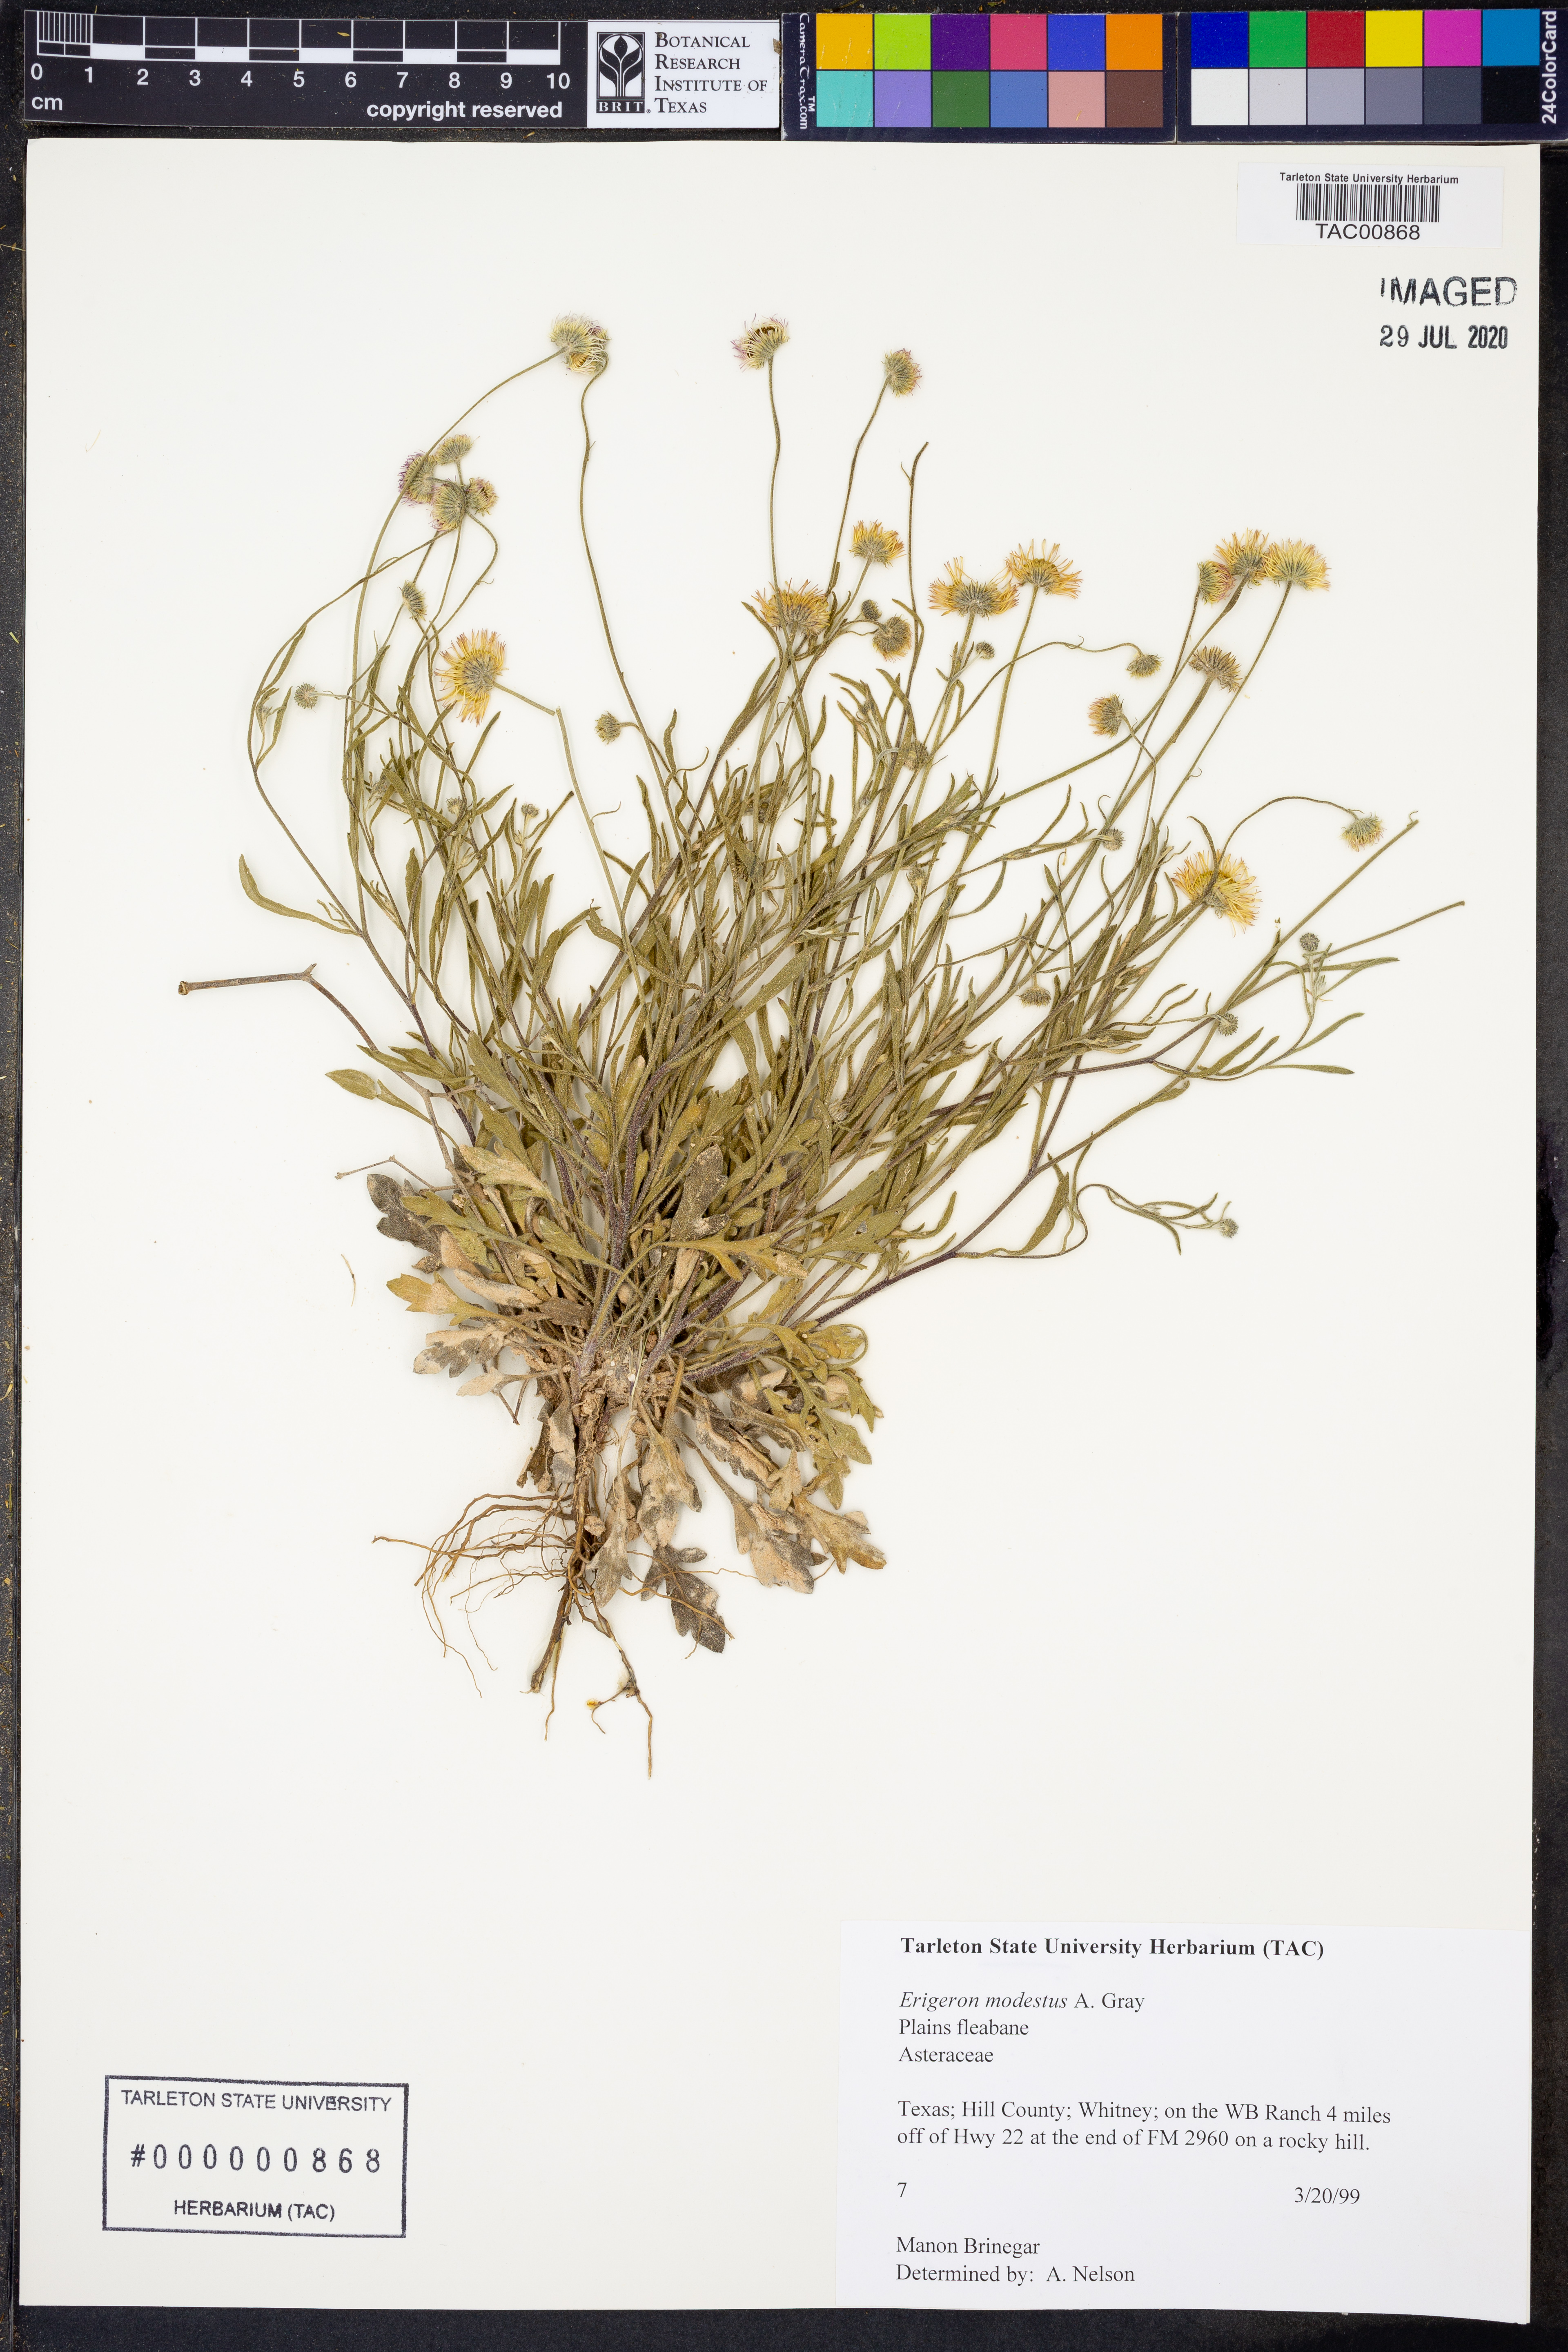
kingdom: Plantae
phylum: Tracheophyta
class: Magnoliopsida
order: Asterales
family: Asteraceae
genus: Erigeron
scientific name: Erigeron modestus
